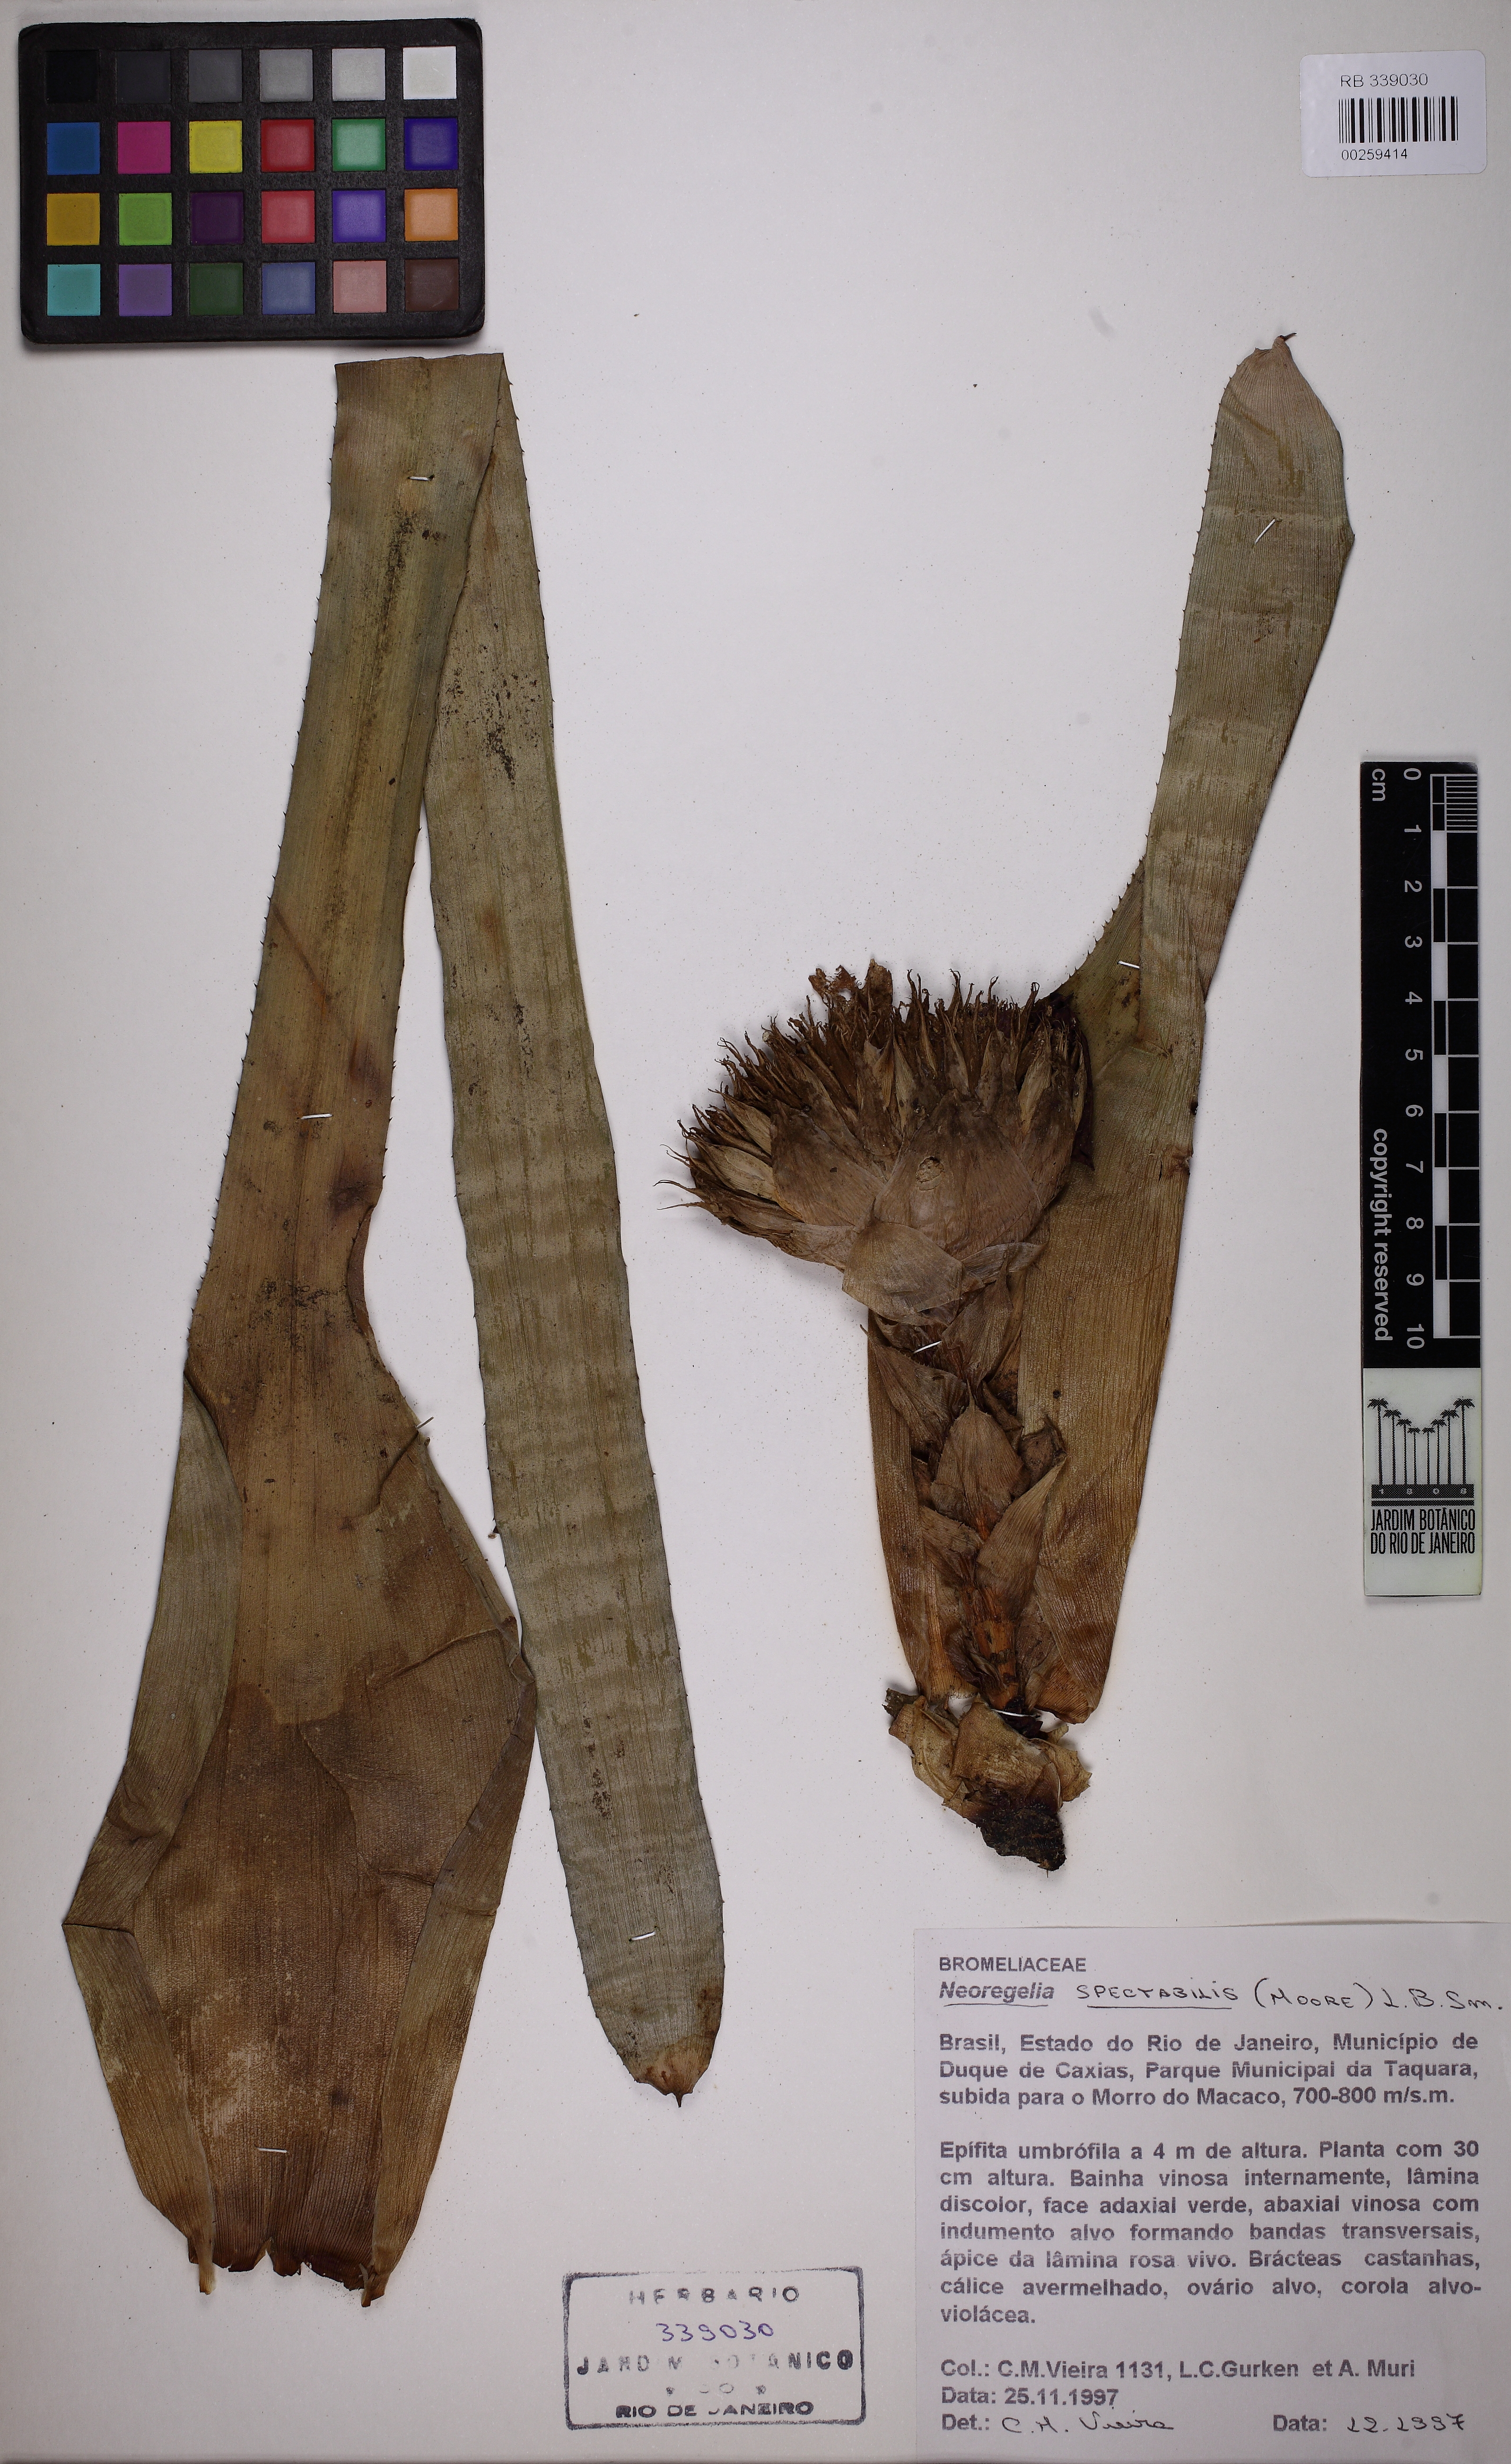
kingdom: Plantae
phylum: Tracheophyta
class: Liliopsida
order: Poales
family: Bromeliaceae
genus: Neoregelia
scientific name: Neoregelia spectabilis
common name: Painted-fingernail
